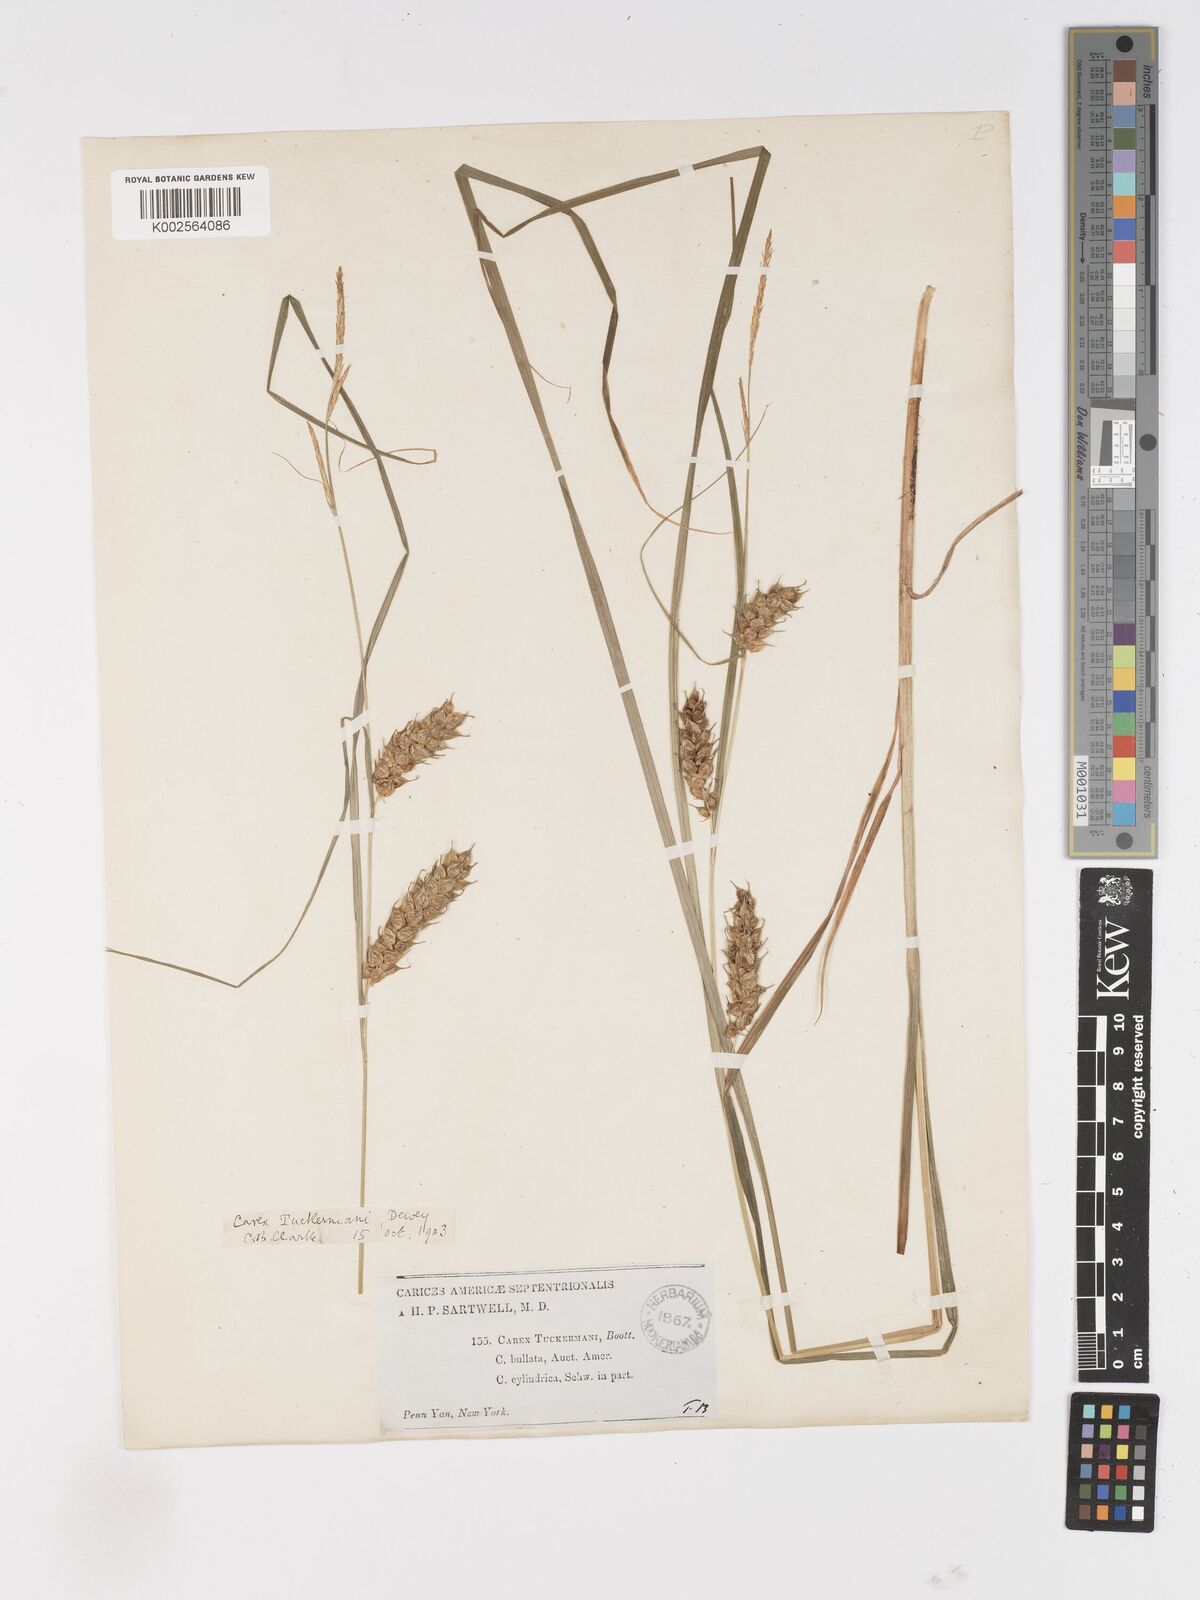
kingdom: Plantae
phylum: Tracheophyta
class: Liliopsida
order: Poales
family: Cyperaceae
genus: Carex
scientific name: Carex tuckermanii
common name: Tuckerman's sedge
